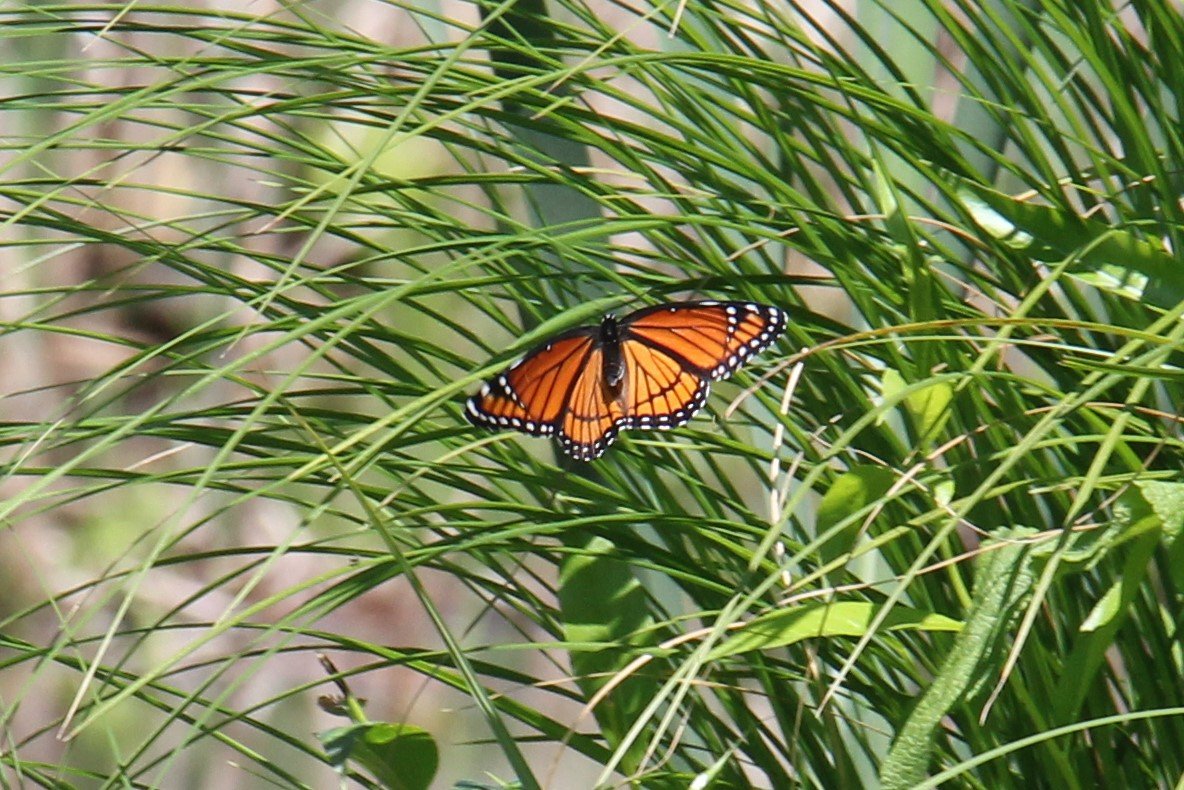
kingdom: Animalia
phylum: Arthropoda
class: Insecta
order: Lepidoptera
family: Nymphalidae
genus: Limenitis
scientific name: Limenitis archippus
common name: Viceroy
